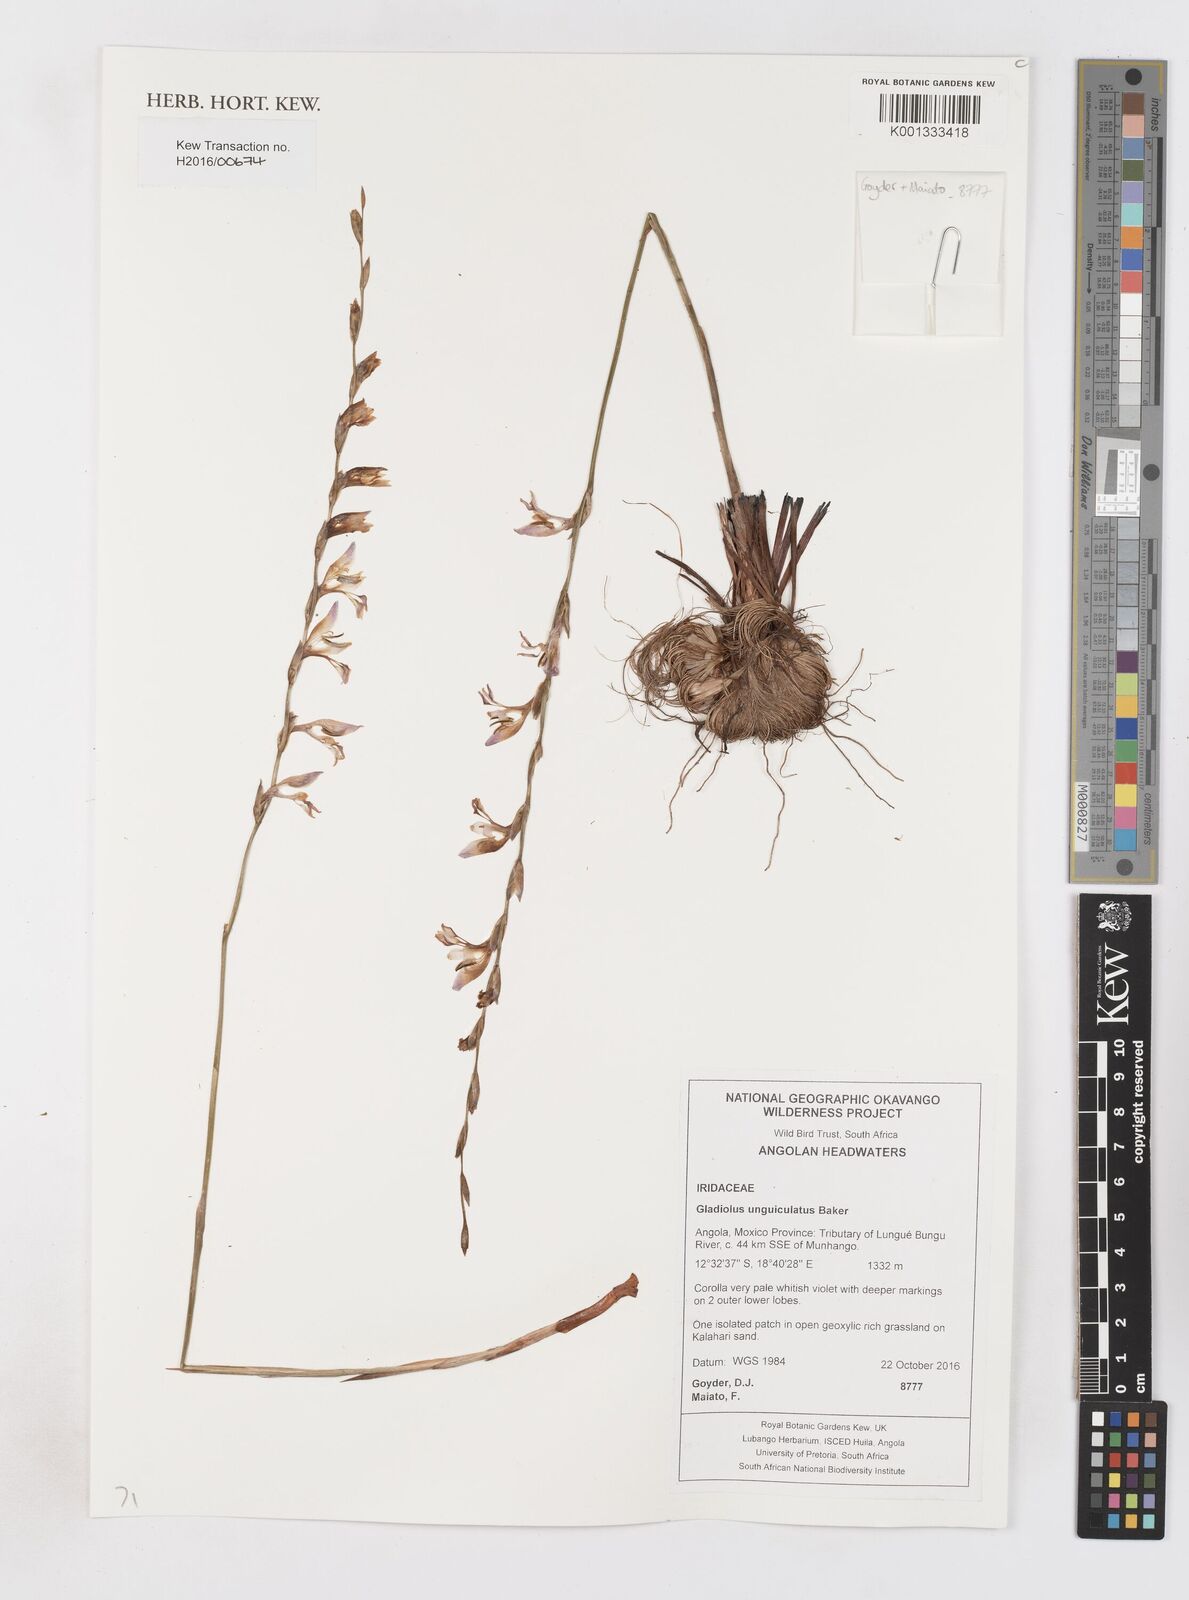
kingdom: Plantae
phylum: Tracheophyta
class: Liliopsida
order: Asparagales
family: Iridaceae
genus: Gladiolus
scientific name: Gladiolus unguiculatus
